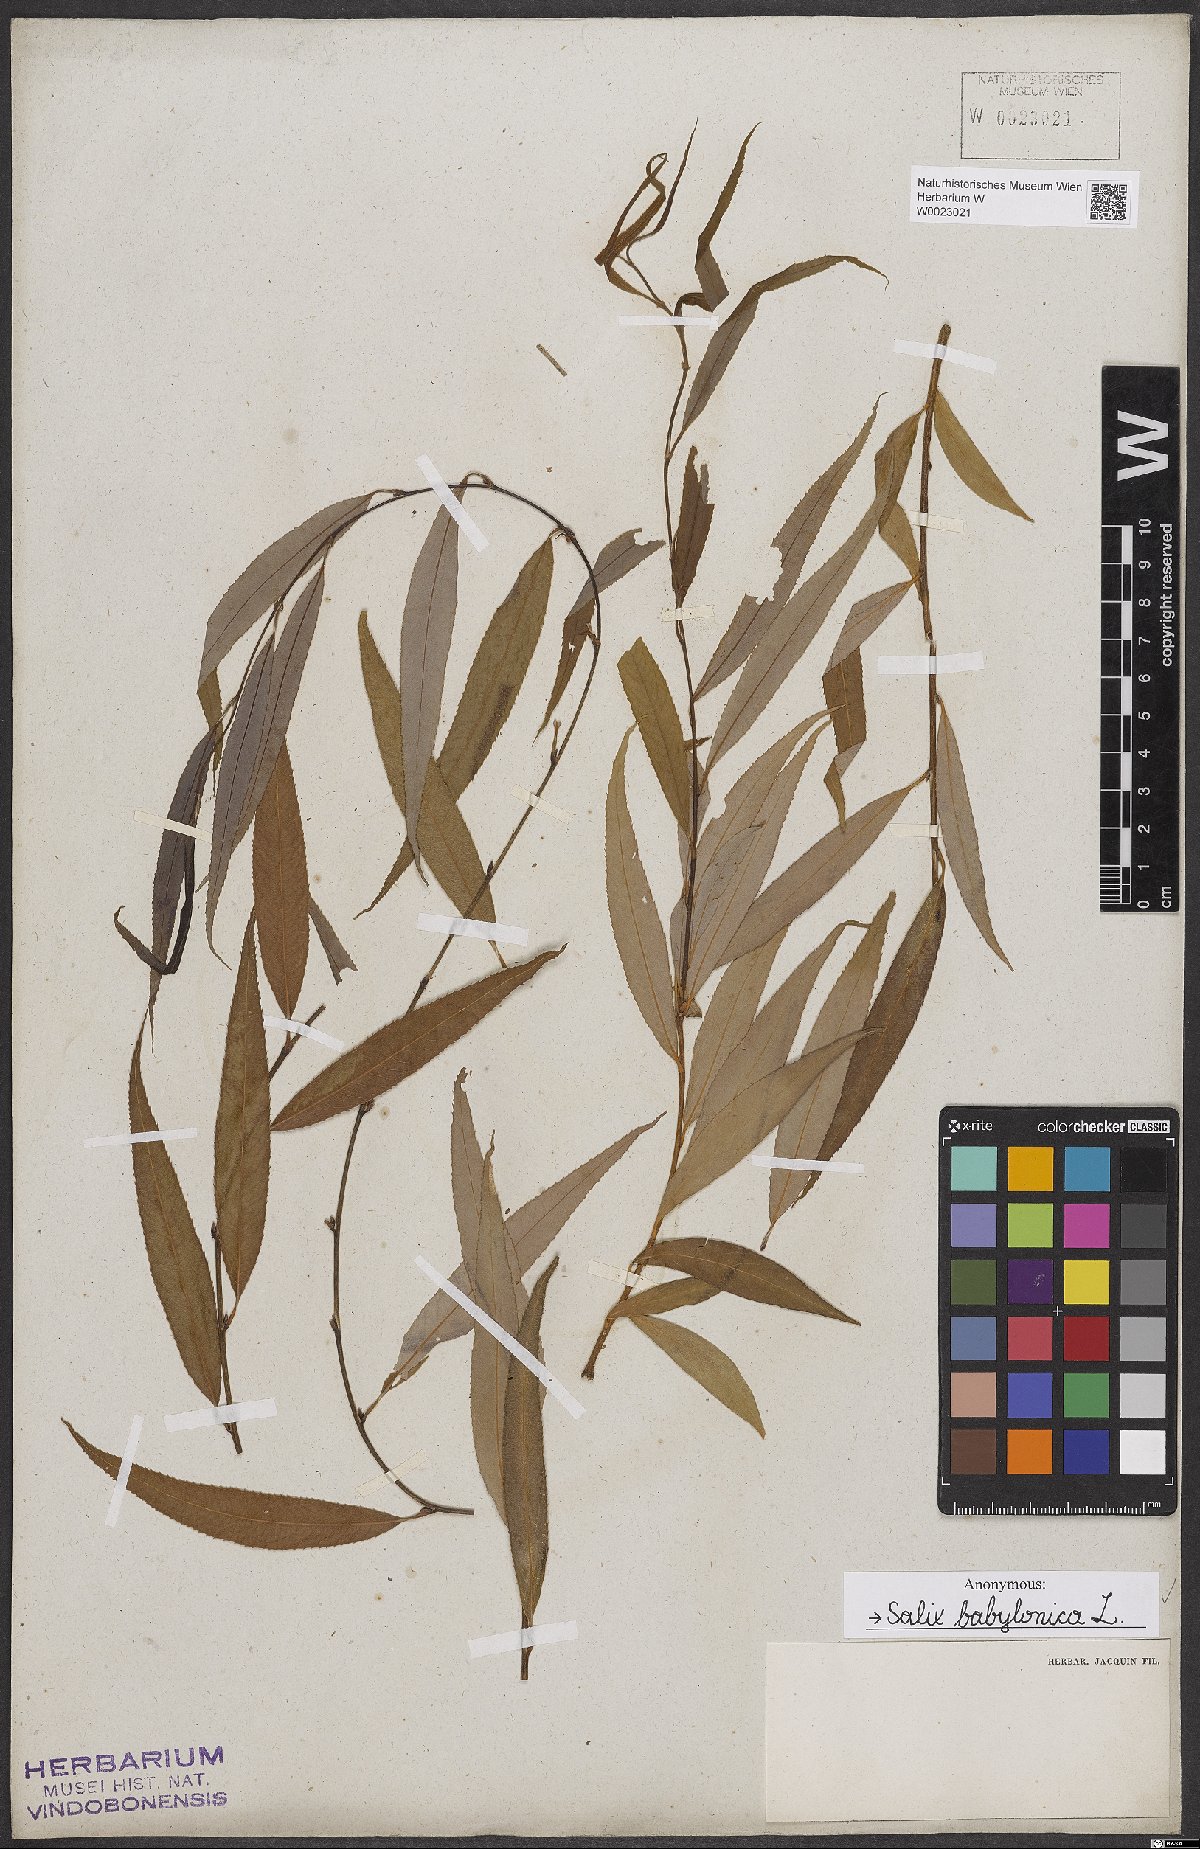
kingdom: Plantae
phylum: Tracheophyta
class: Magnoliopsida
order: Malpighiales
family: Salicaceae
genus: Salix
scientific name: Salix babylonica
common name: Weeping willow
